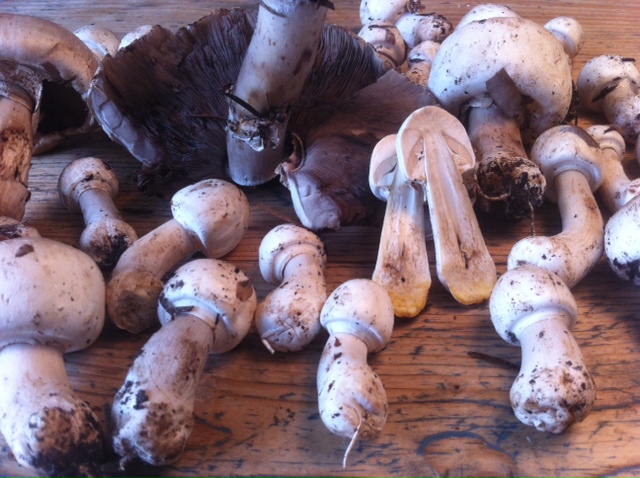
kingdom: Fungi
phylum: Basidiomycota
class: Agaricomycetes
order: Agaricales
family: Agaricaceae
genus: Agaricus
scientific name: Agaricus xanthodermus
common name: karbol-champignon
